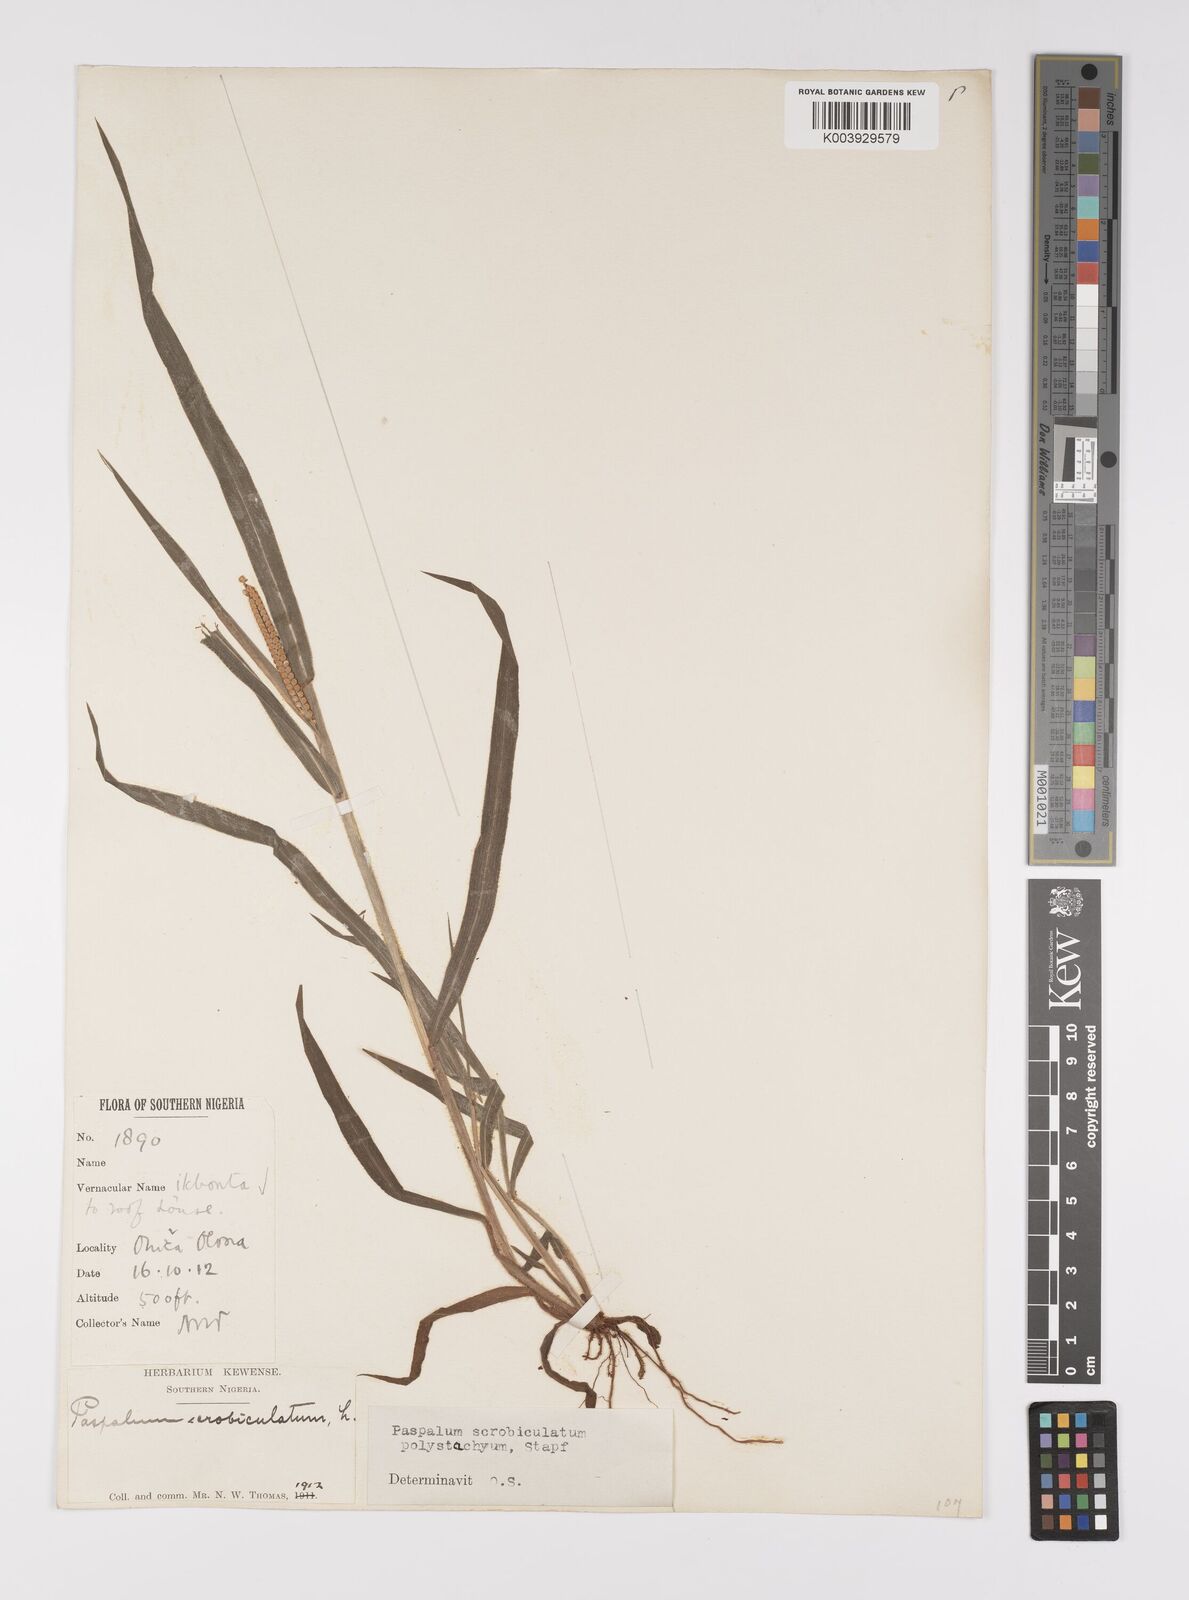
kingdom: Plantae
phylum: Tracheophyta
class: Liliopsida
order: Poales
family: Poaceae
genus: Paspalum
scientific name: Paspalum scrobiculatum
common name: Kodo millet
